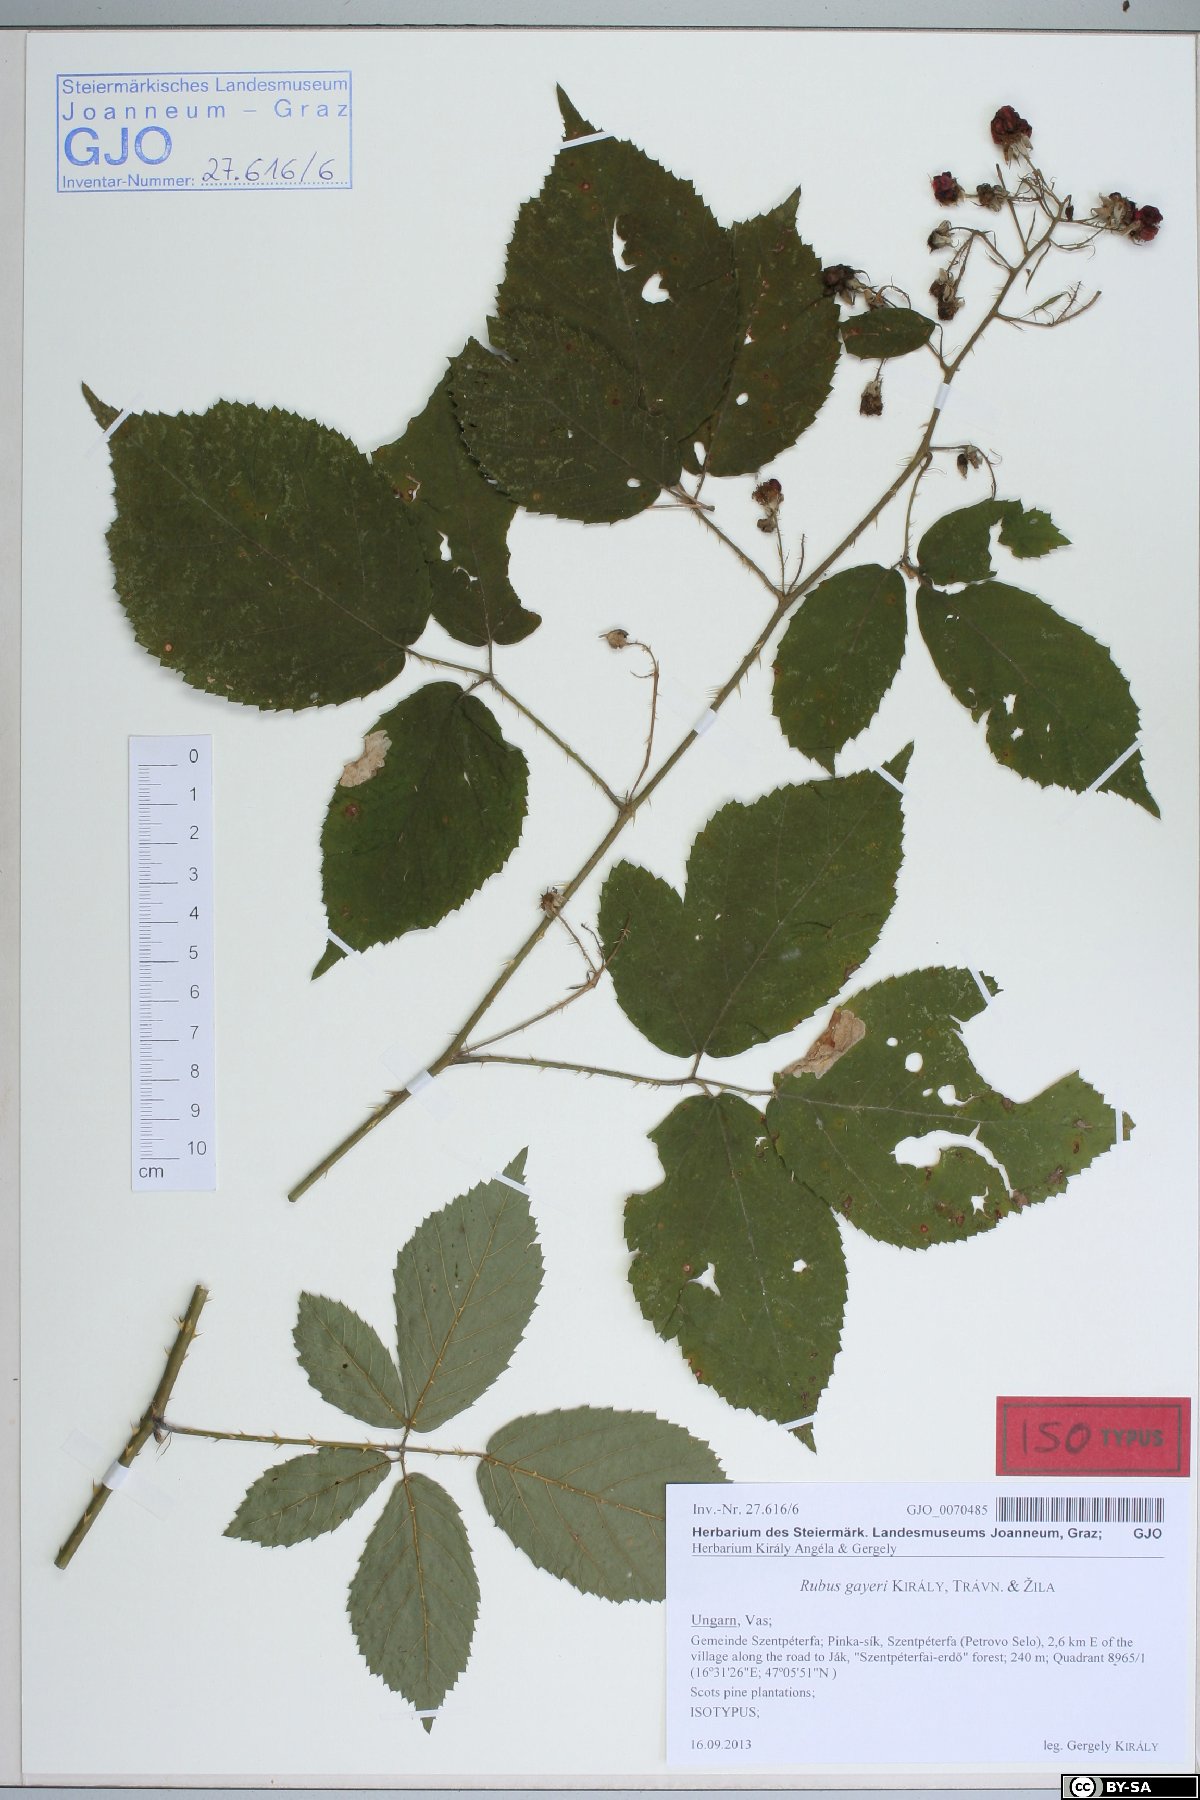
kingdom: Plantae
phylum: Tracheophyta
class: Magnoliopsida
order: Rosales
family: Rosaceae
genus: Rubus
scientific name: Rubus gayeri
